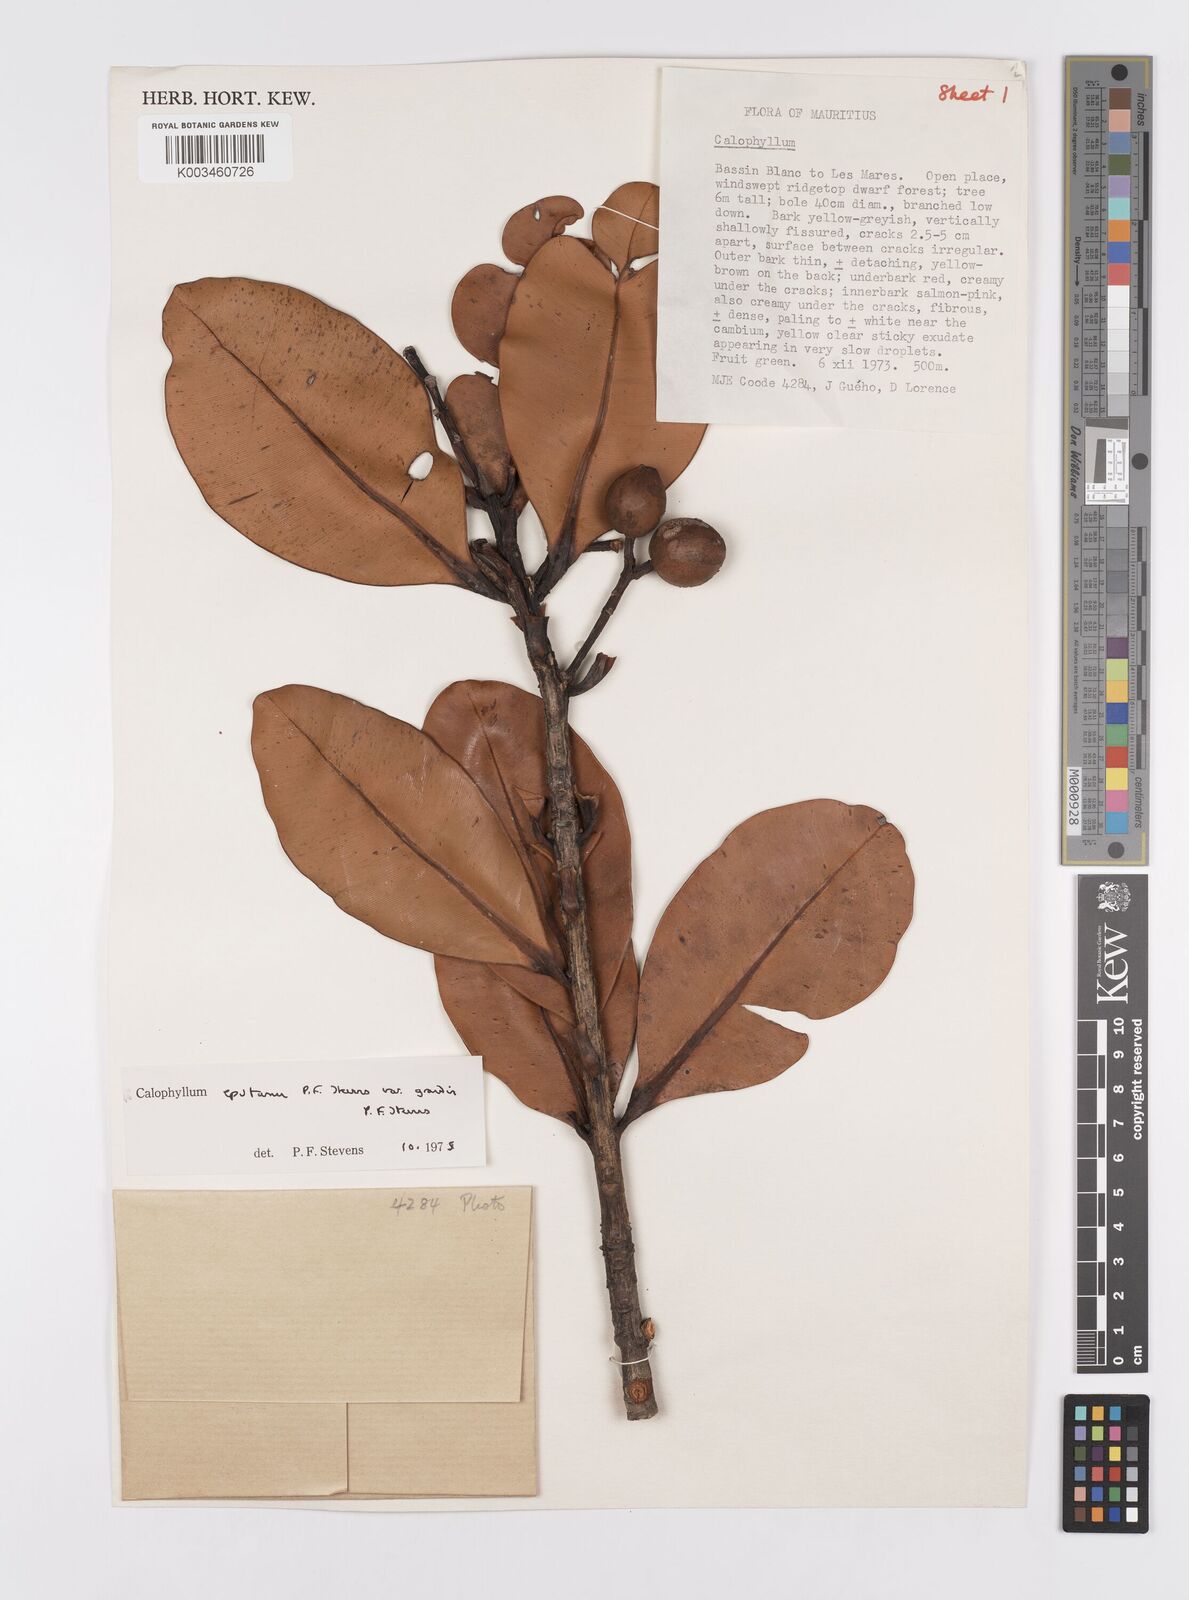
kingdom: Plantae
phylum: Tracheophyta
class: Magnoliopsida
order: Malpighiales
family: Calophyllaceae
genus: Calophyllum
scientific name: Calophyllum eputamen
